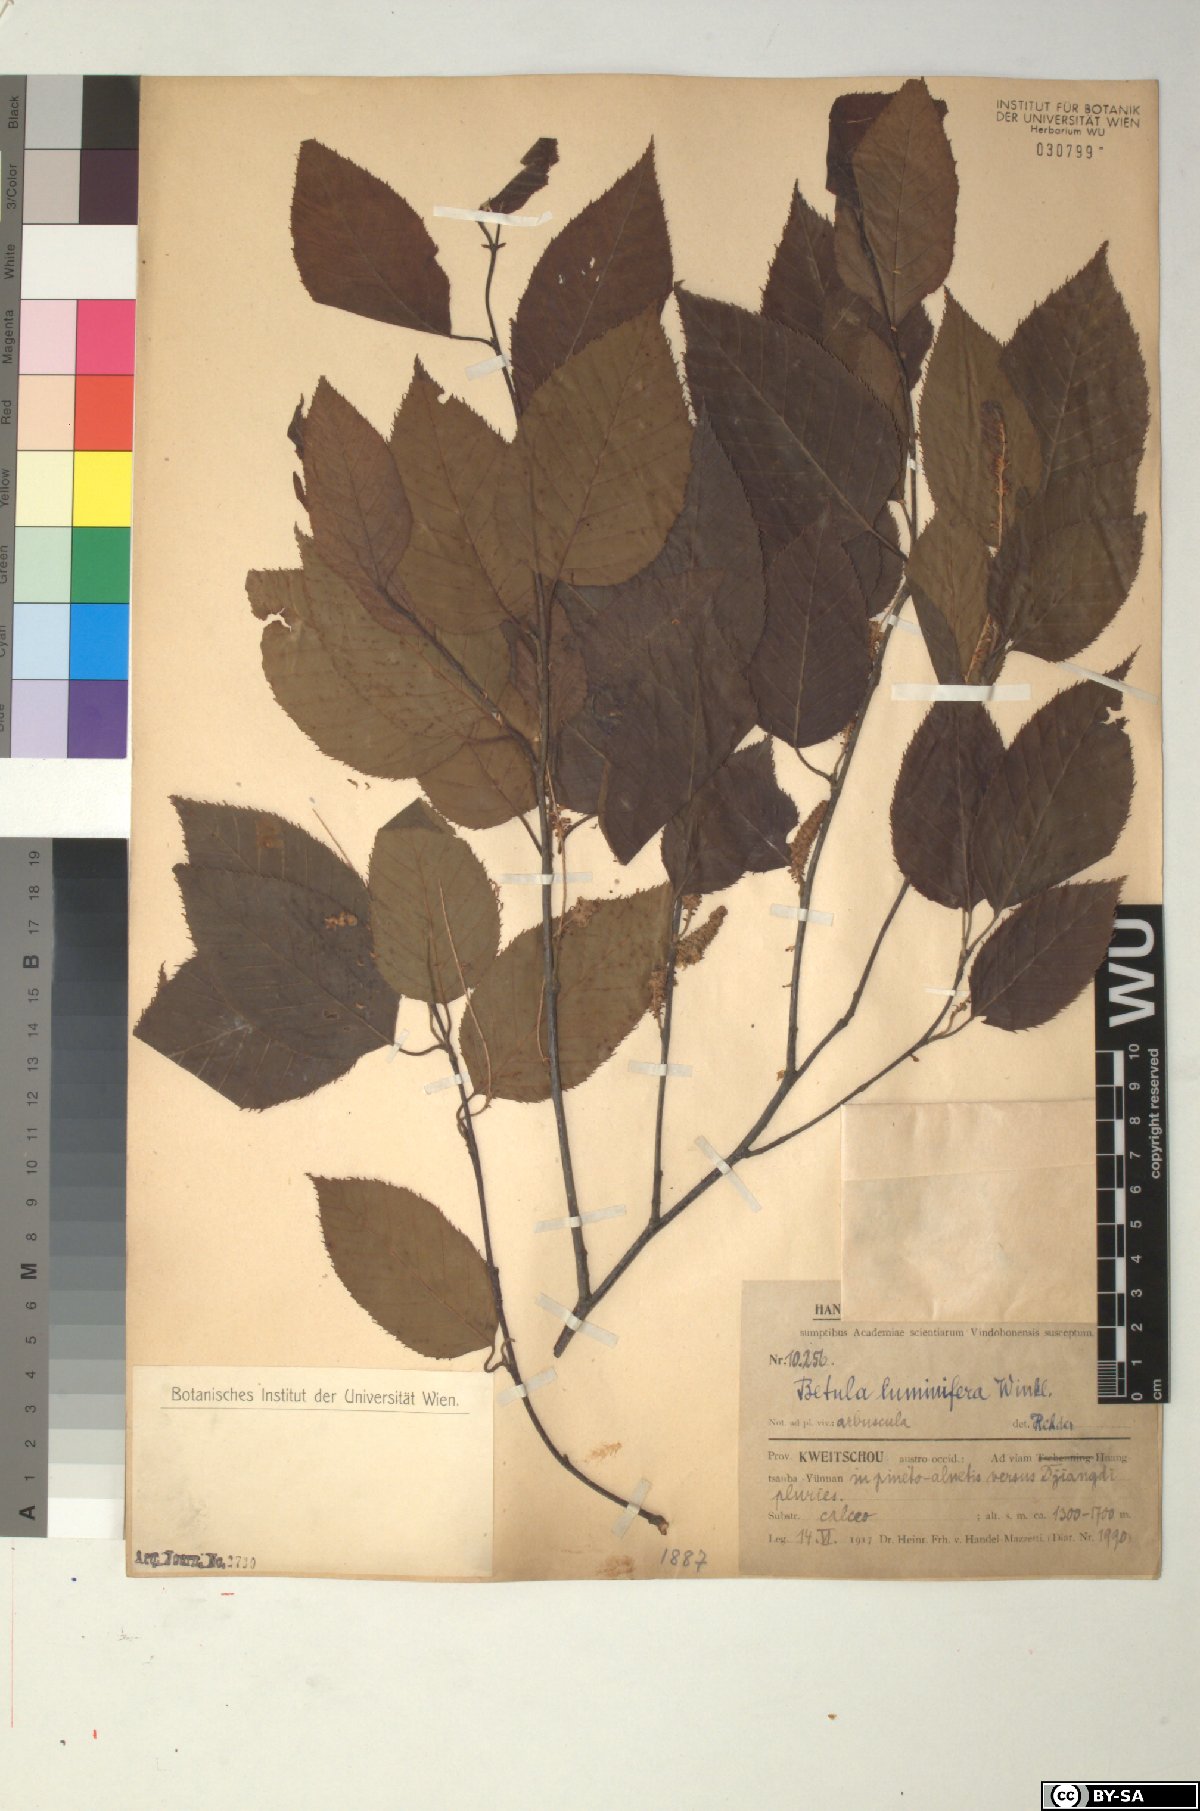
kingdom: Plantae
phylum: Tracheophyta
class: Magnoliopsida
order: Fagales
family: Betulaceae
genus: Betula
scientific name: Betula luminifera
